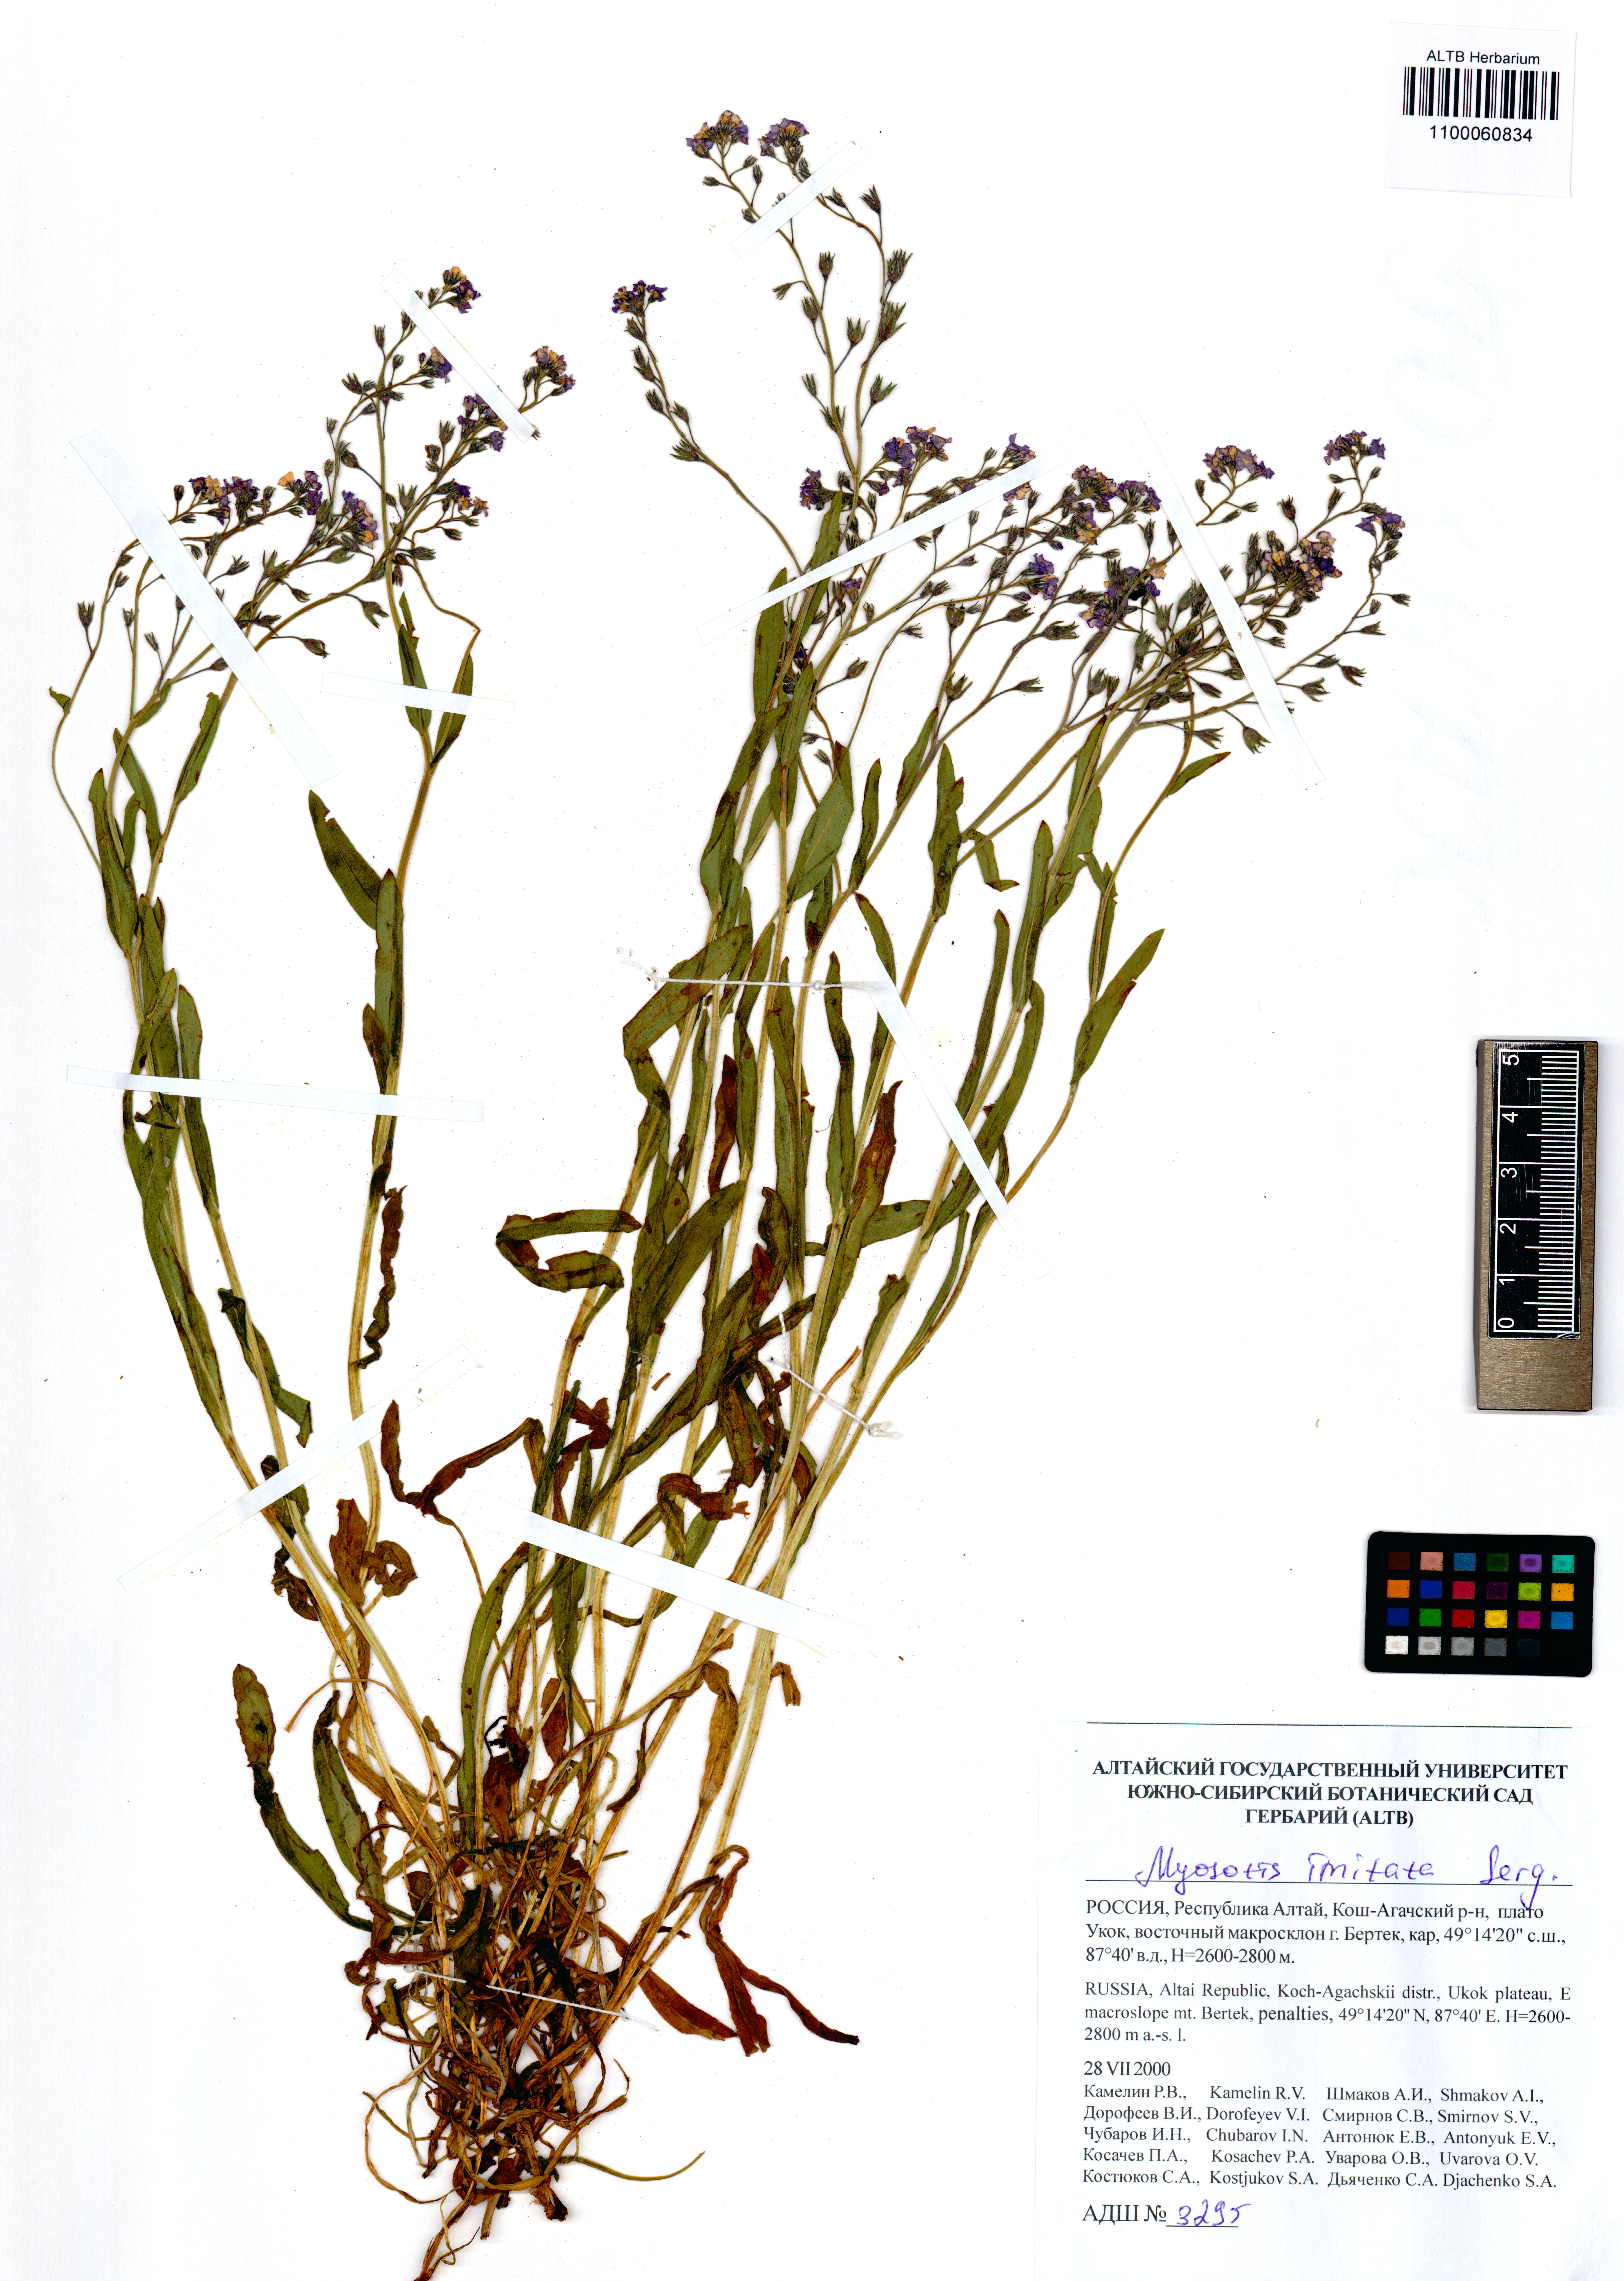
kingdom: Plantae
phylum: Tracheophyta
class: Magnoliopsida
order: Boraginales
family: Boraginaceae
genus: Myosotis
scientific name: Myosotis imitata
